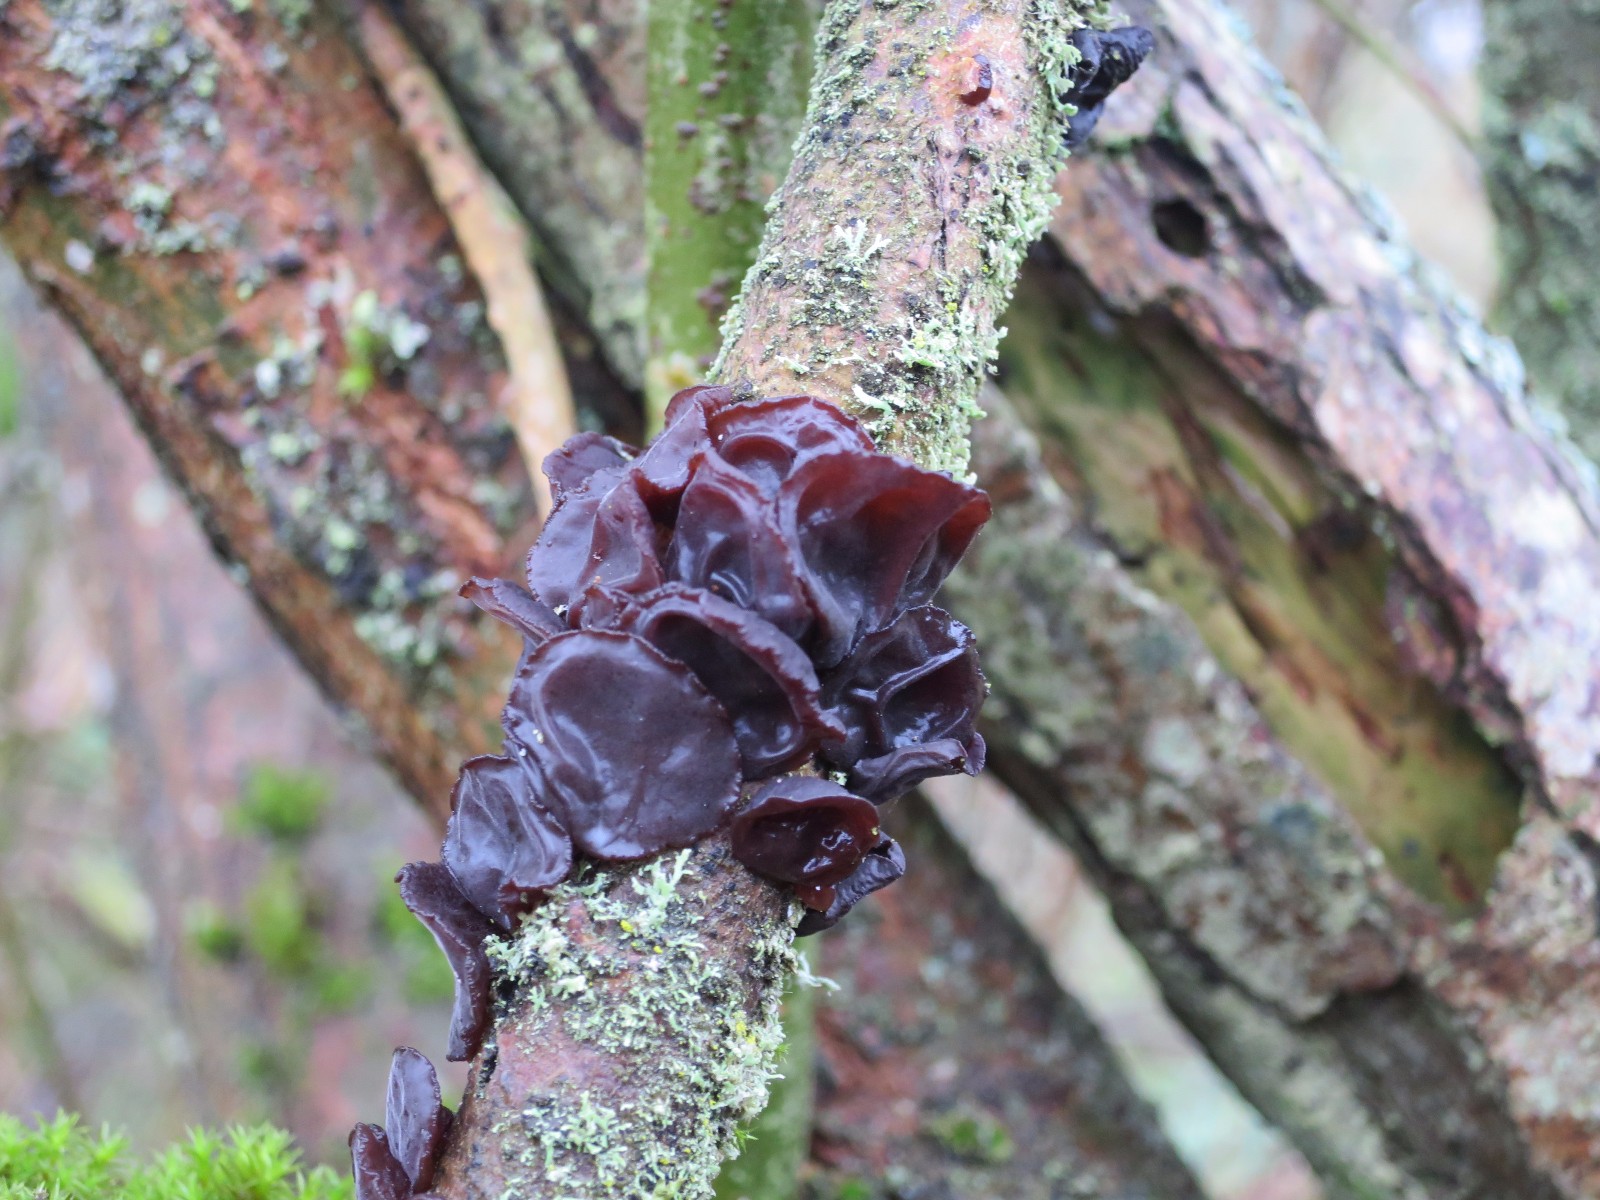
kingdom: Fungi
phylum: Basidiomycota
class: Agaricomycetes
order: Auriculariales
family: Auriculariaceae
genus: Exidia
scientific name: Exidia recisa
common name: pile-bævretop
